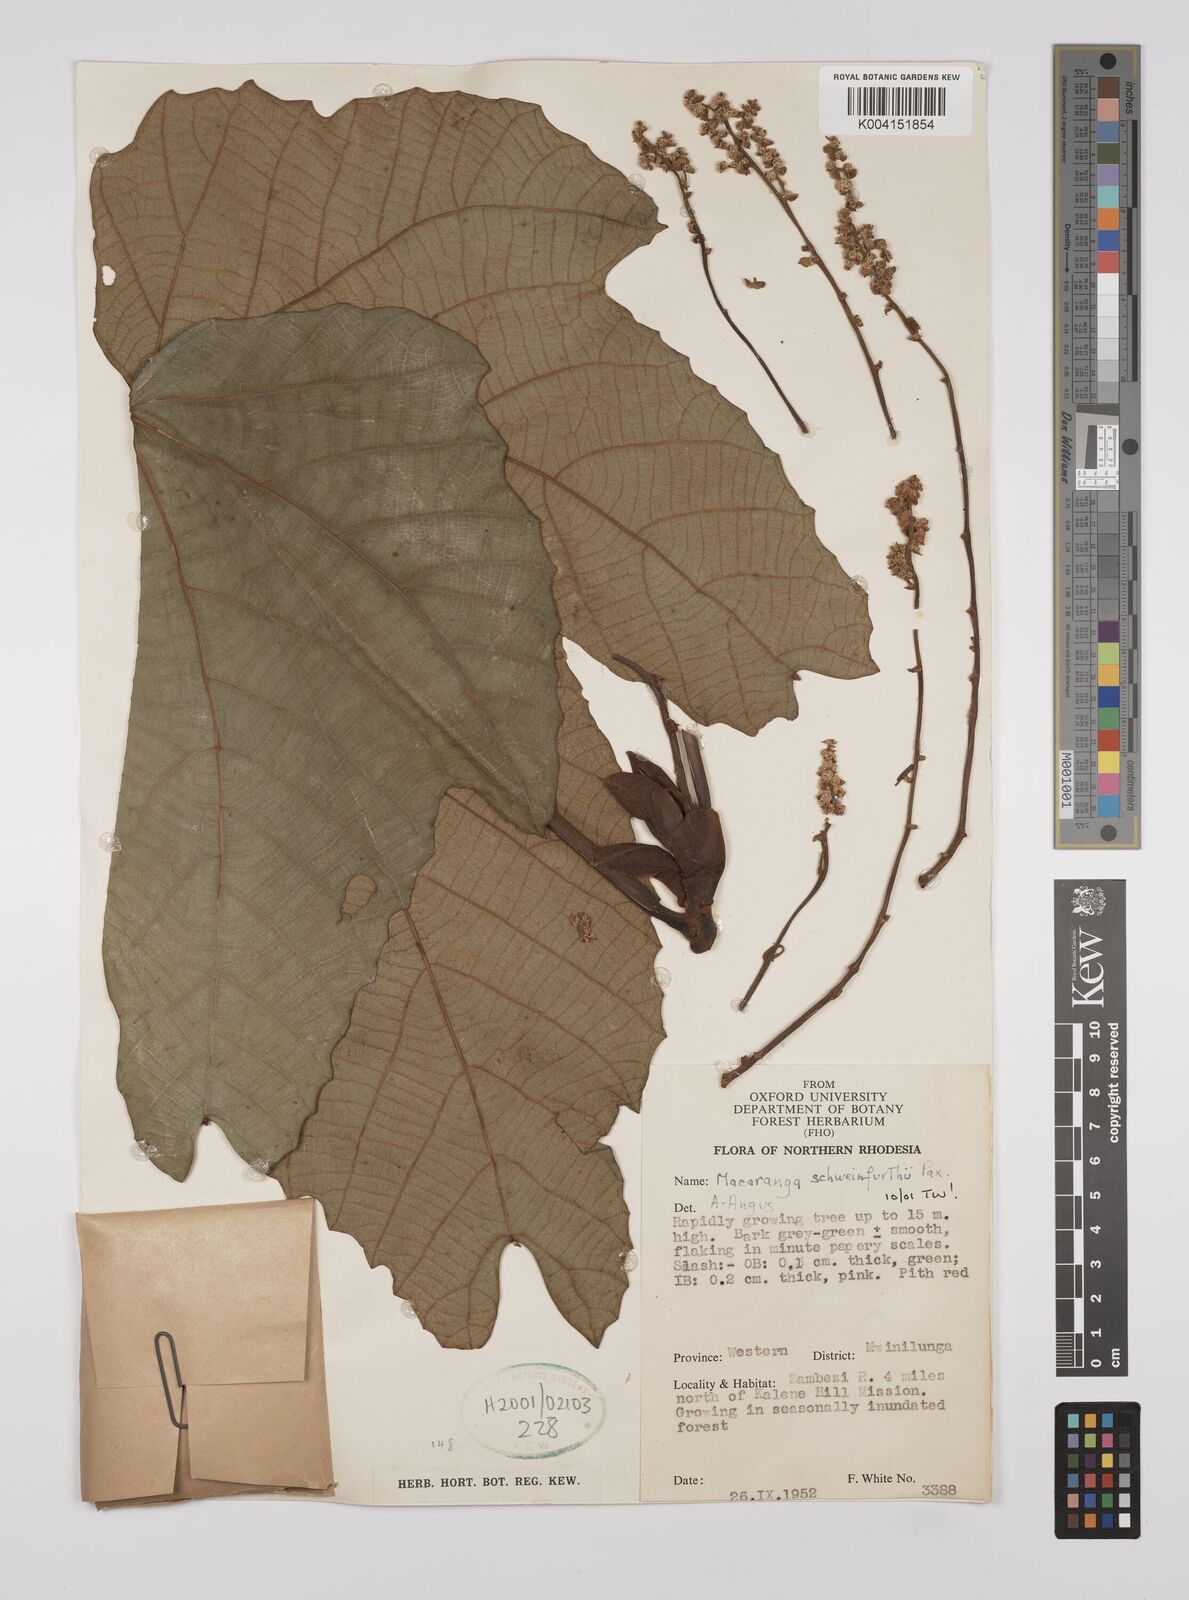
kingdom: Plantae
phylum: Tracheophyta
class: Magnoliopsida
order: Malpighiales
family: Euphorbiaceae
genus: Macaranga
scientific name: Macaranga schweinfurthii
